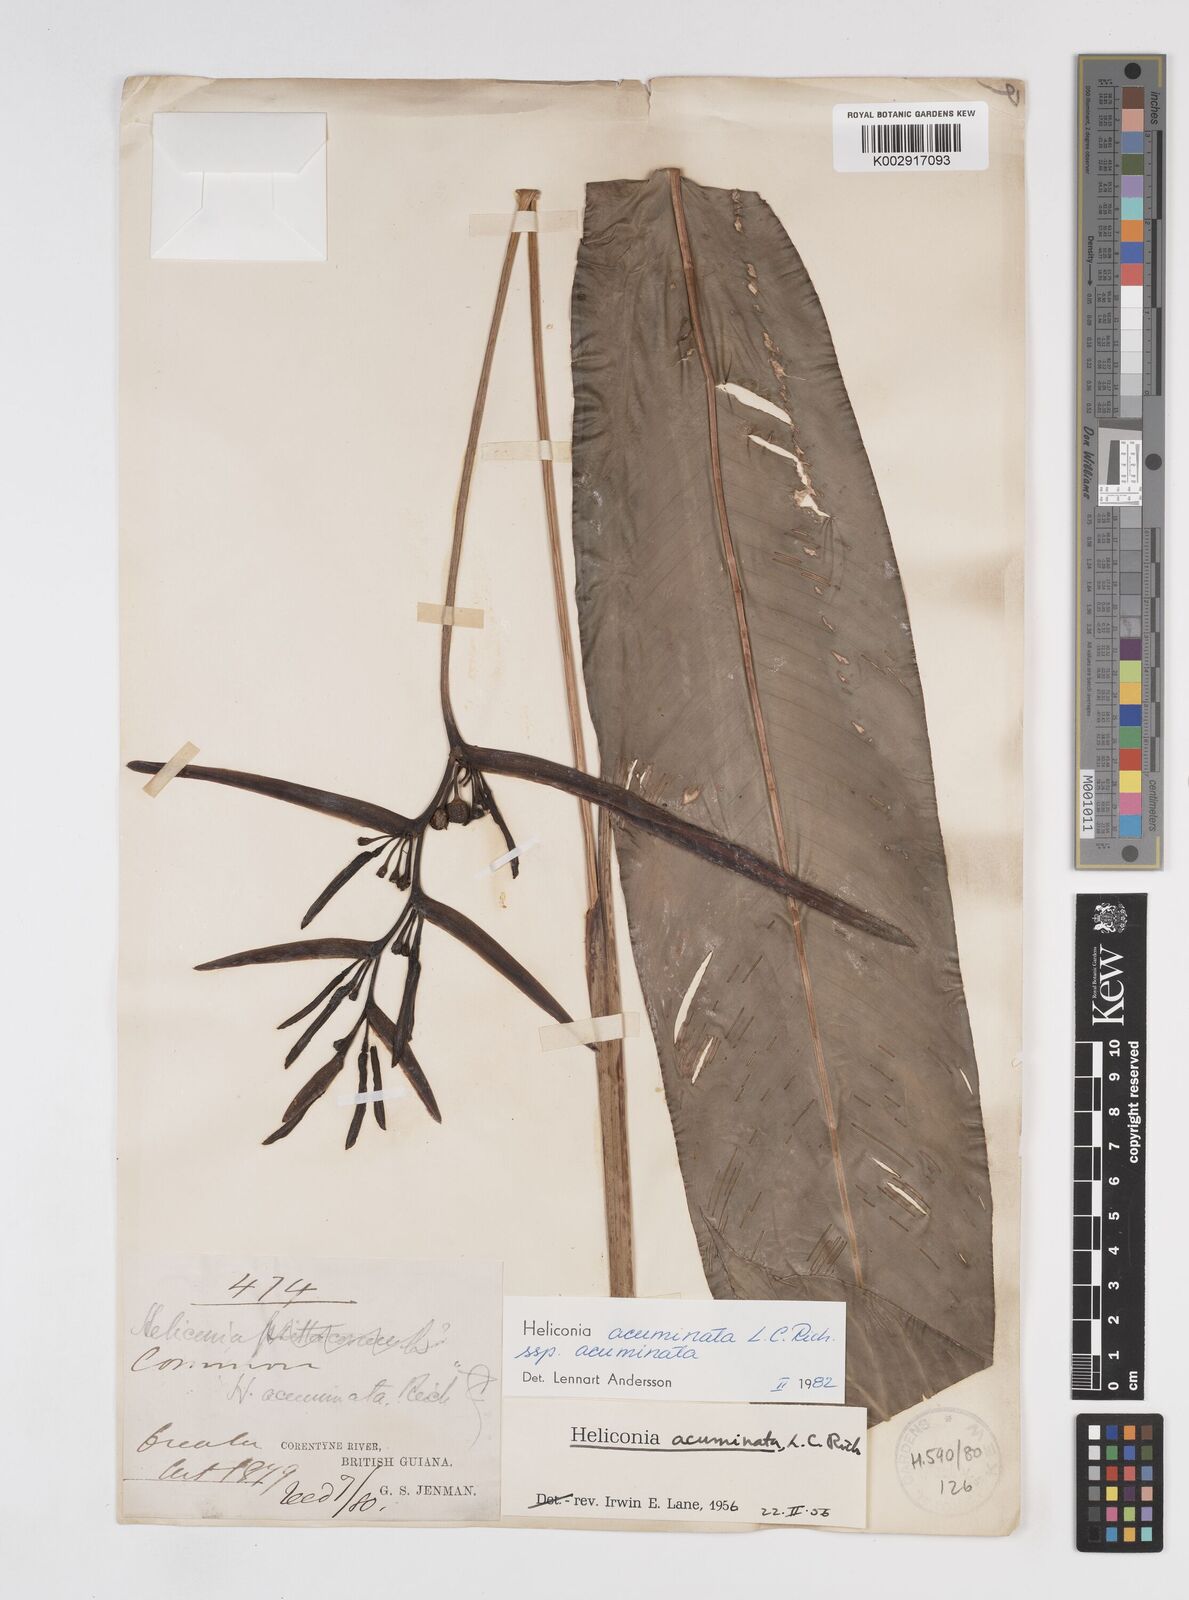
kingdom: Plantae
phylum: Tracheophyta
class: Liliopsida
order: Zingiberales
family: Heliconiaceae
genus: Heliconia
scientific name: Heliconia acuminata
